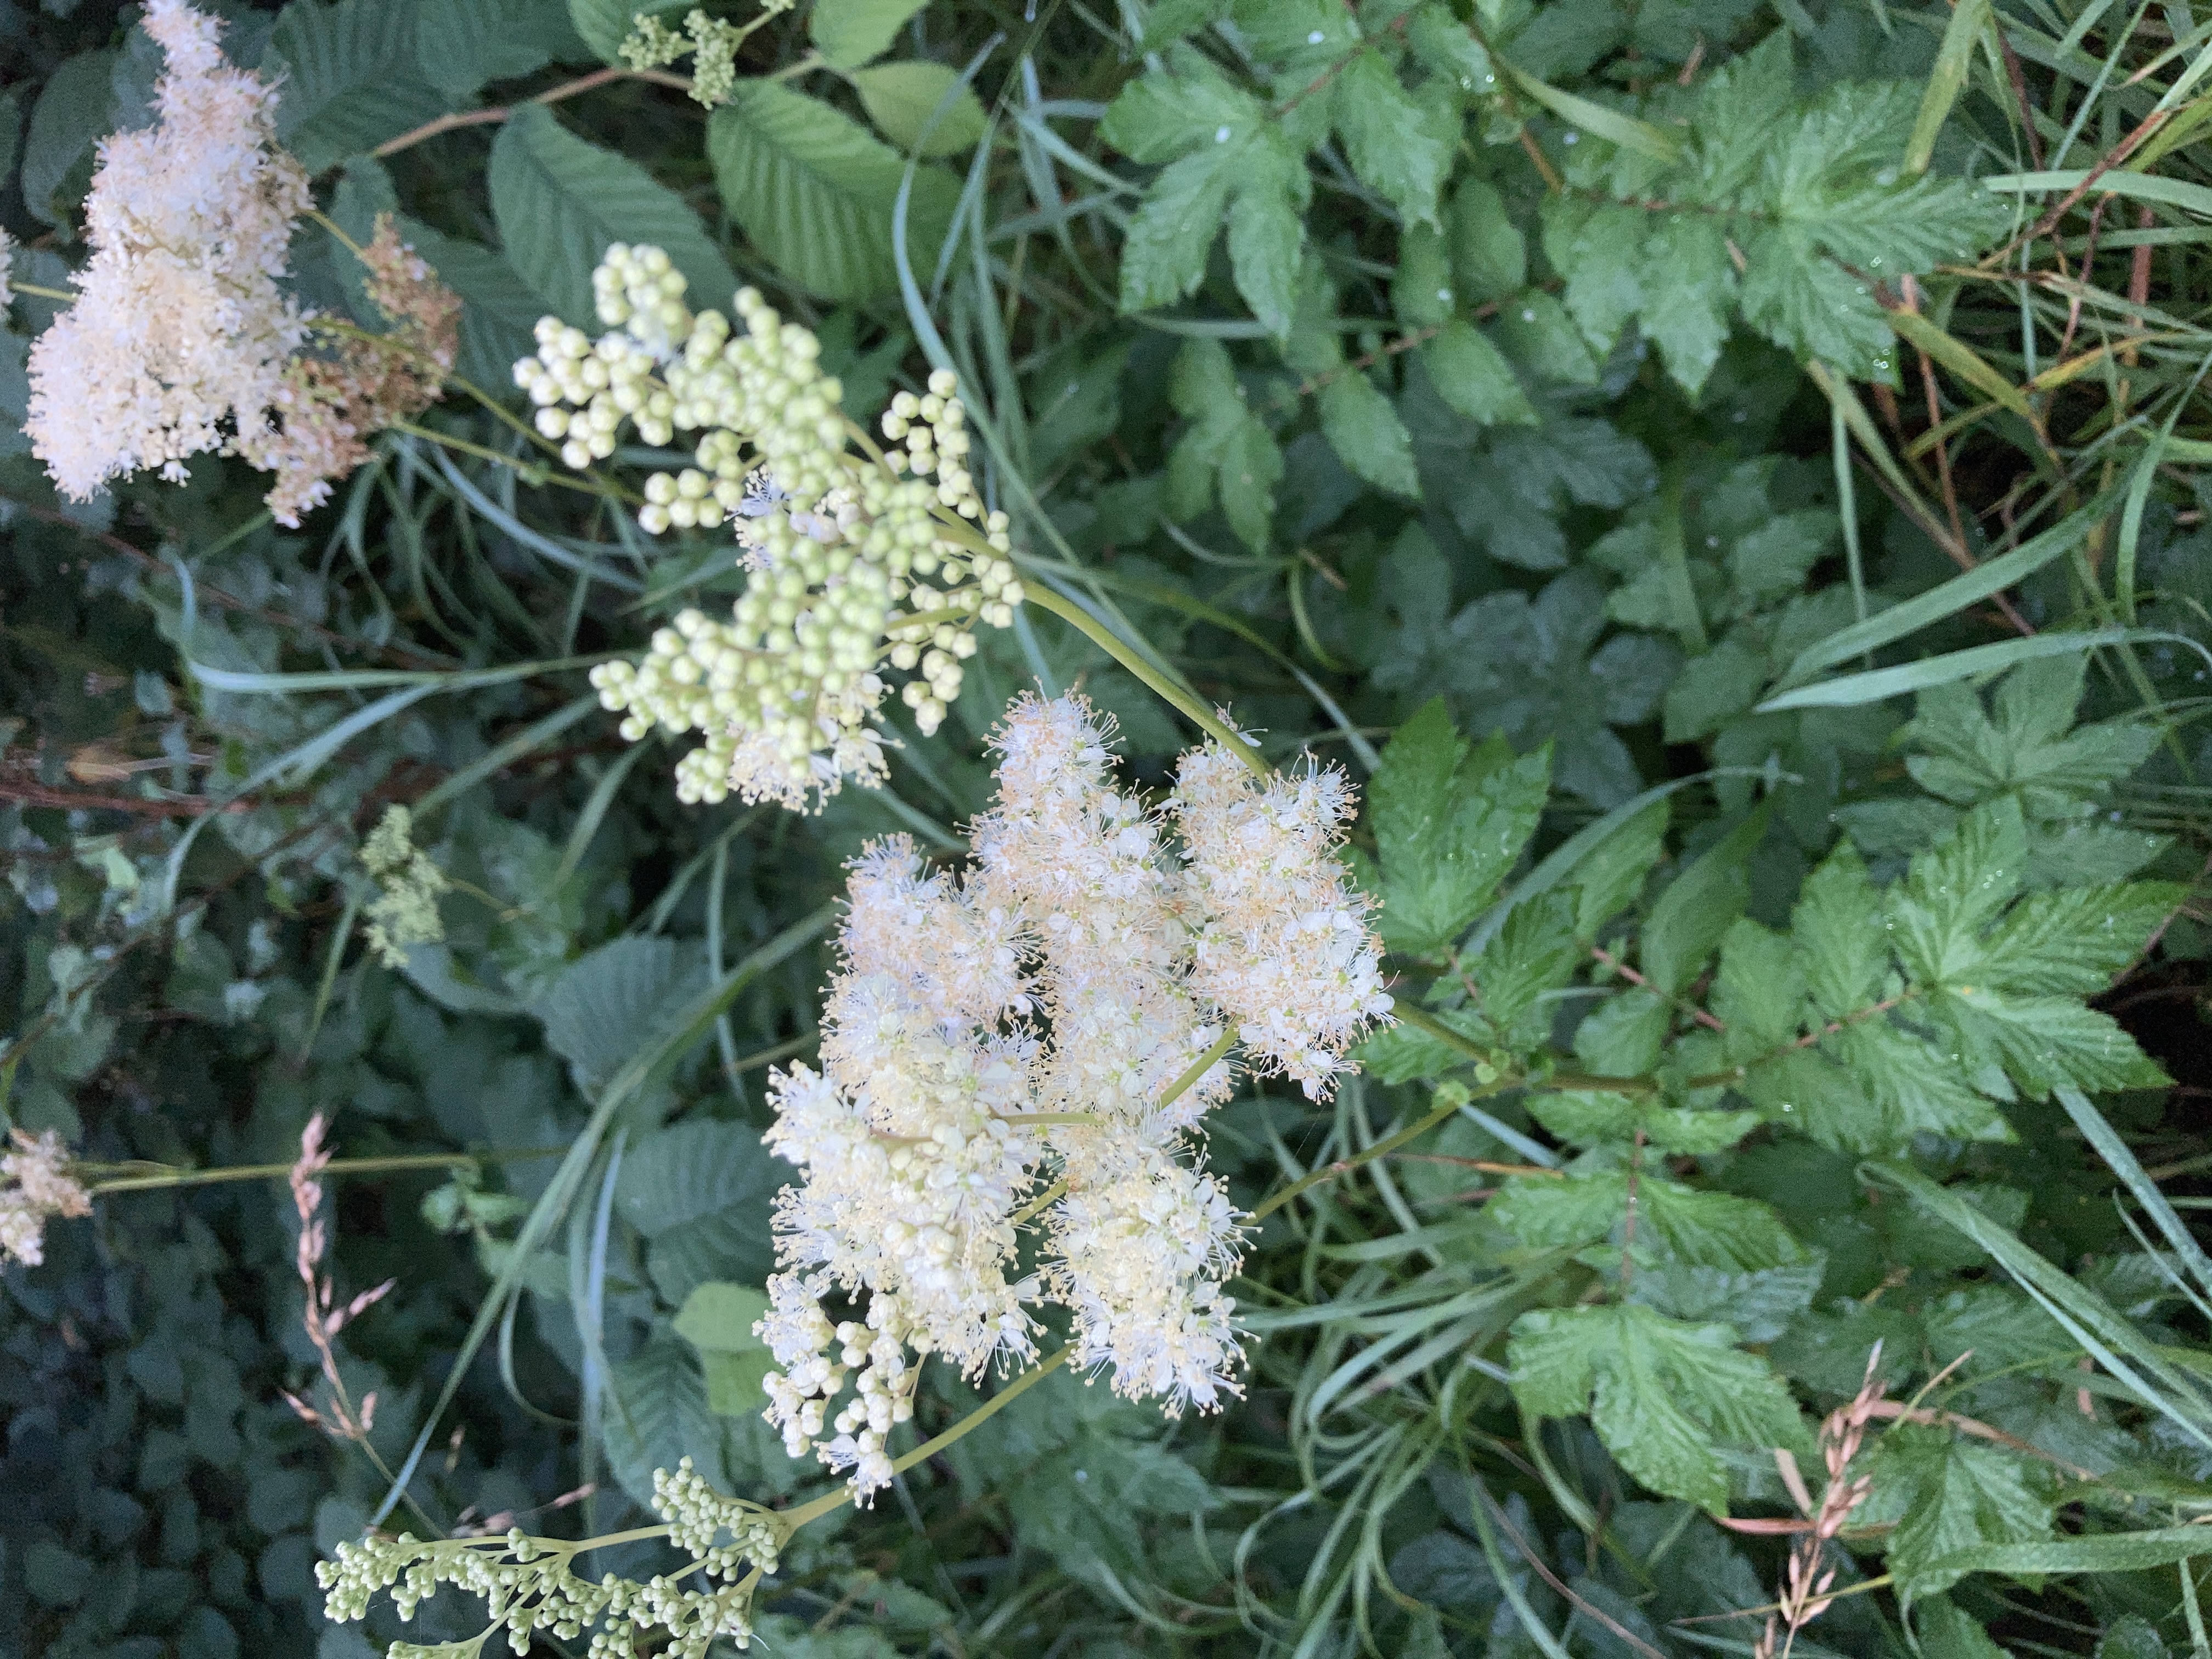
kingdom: Plantae
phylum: Tracheophyta
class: Magnoliopsida
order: Rosales
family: Rosaceae
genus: Filipendula
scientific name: Filipendula ulmaria
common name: Almindelig mjødurt
